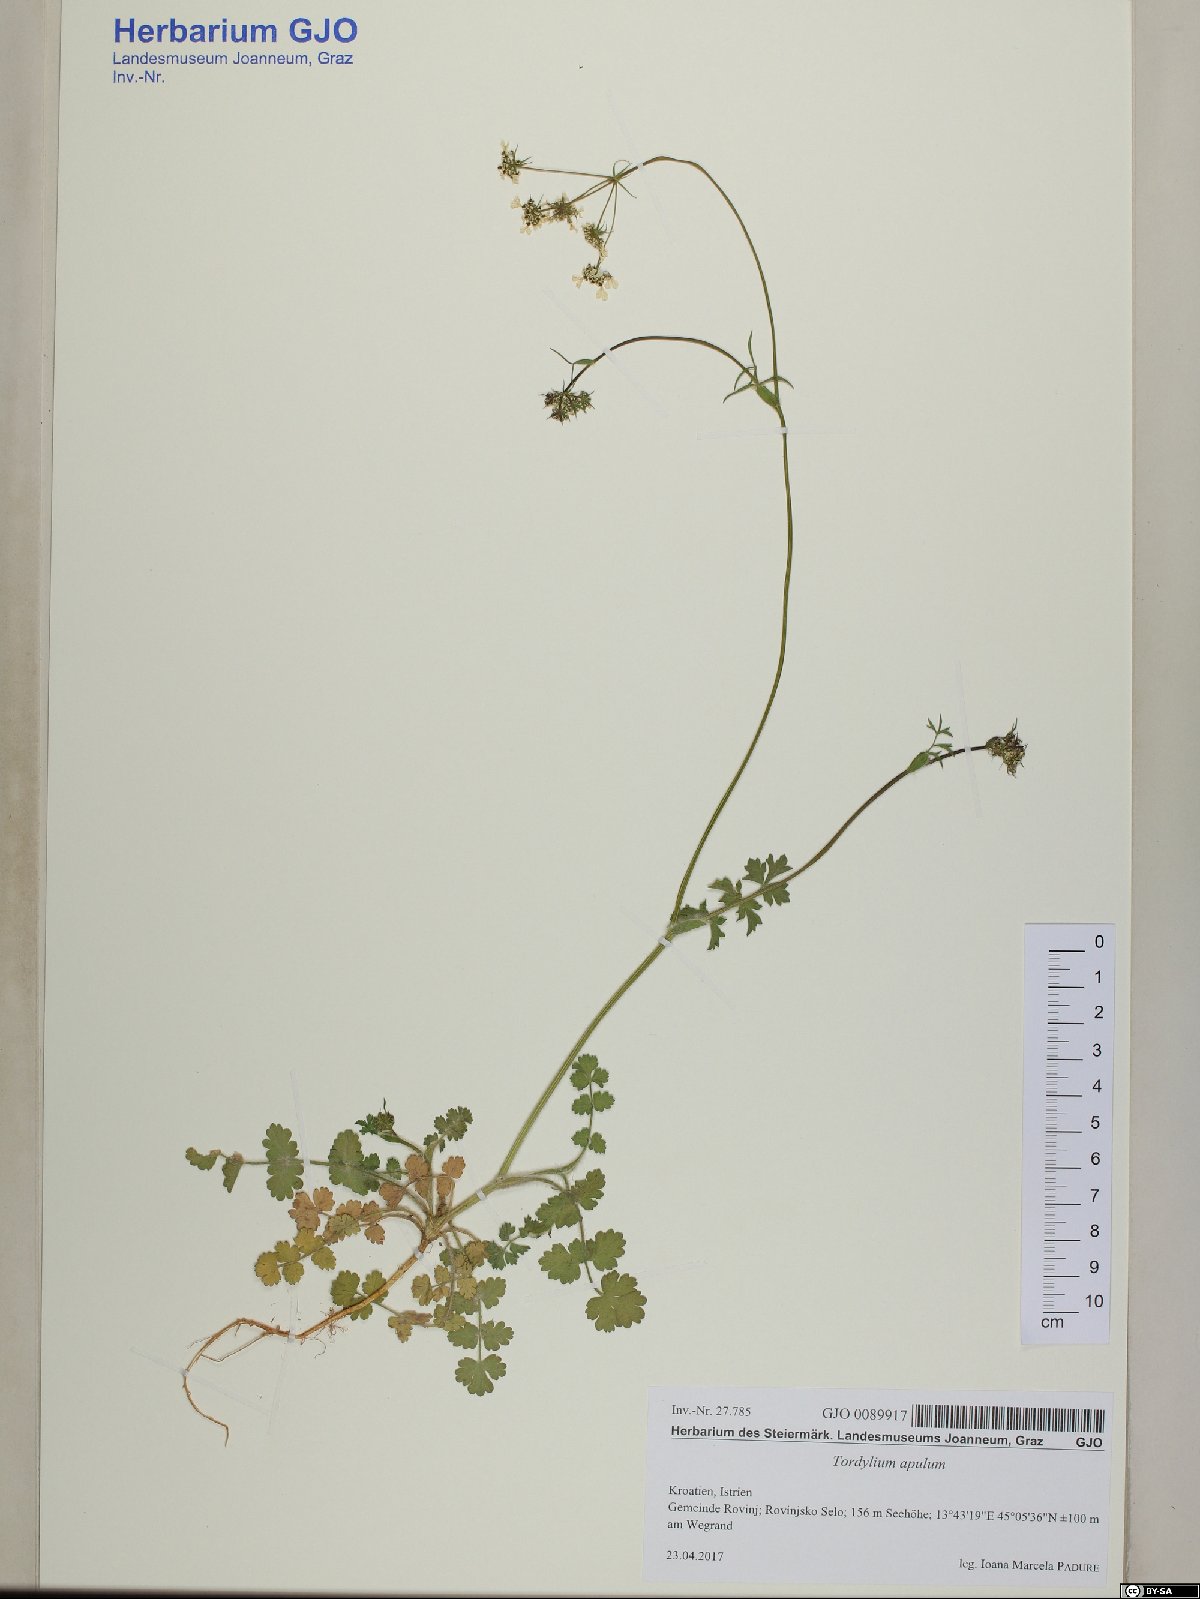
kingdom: Plantae
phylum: Tracheophyta
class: Magnoliopsida
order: Apiales
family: Apiaceae
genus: Tordylium
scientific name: Tordylium apulum
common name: Mediterranean hartwort
